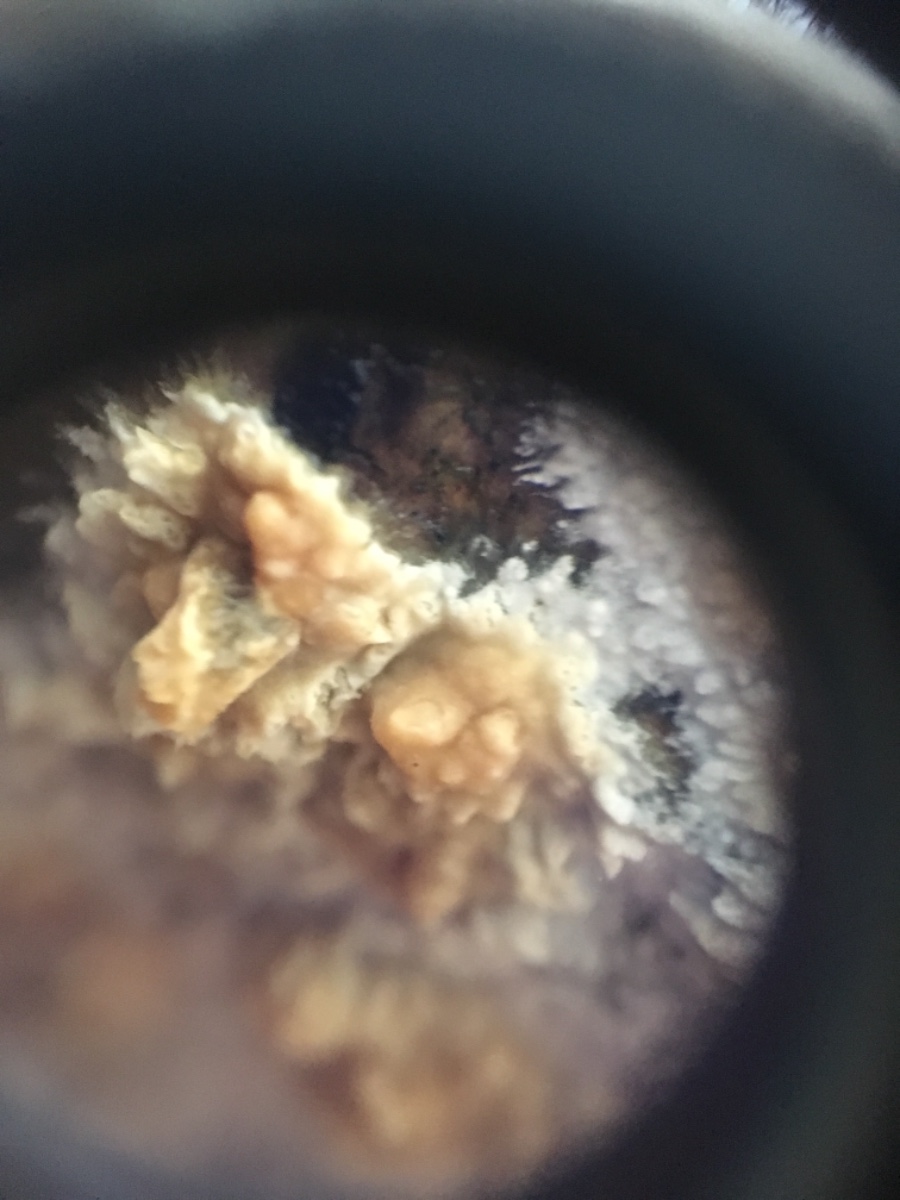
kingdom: Fungi
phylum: Basidiomycota
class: Agaricomycetes
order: Russulales
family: Stereaceae
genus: Stereum
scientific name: Stereum hirsutum
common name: håret lædersvamp
